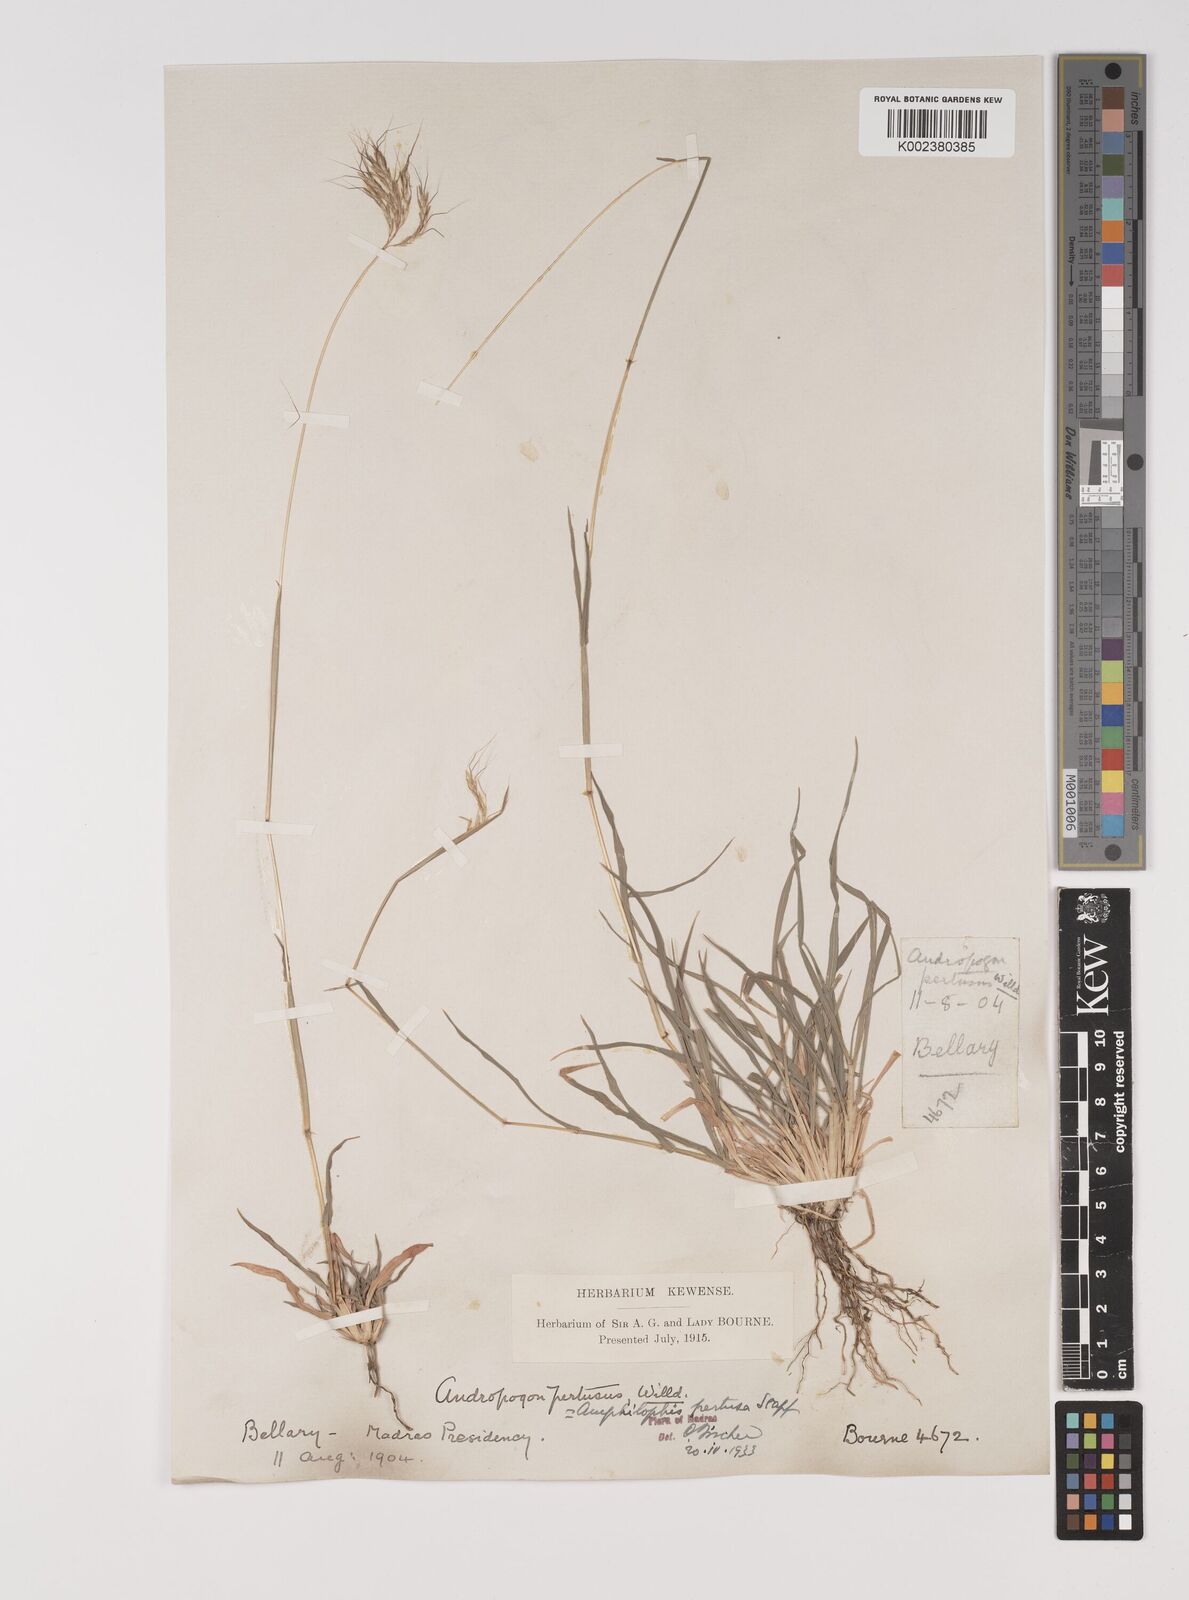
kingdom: Plantae
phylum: Tracheophyta
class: Liliopsida
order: Poales
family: Poaceae
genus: Bothriochloa
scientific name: Bothriochloa pertusa
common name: Pitted beardgrass
